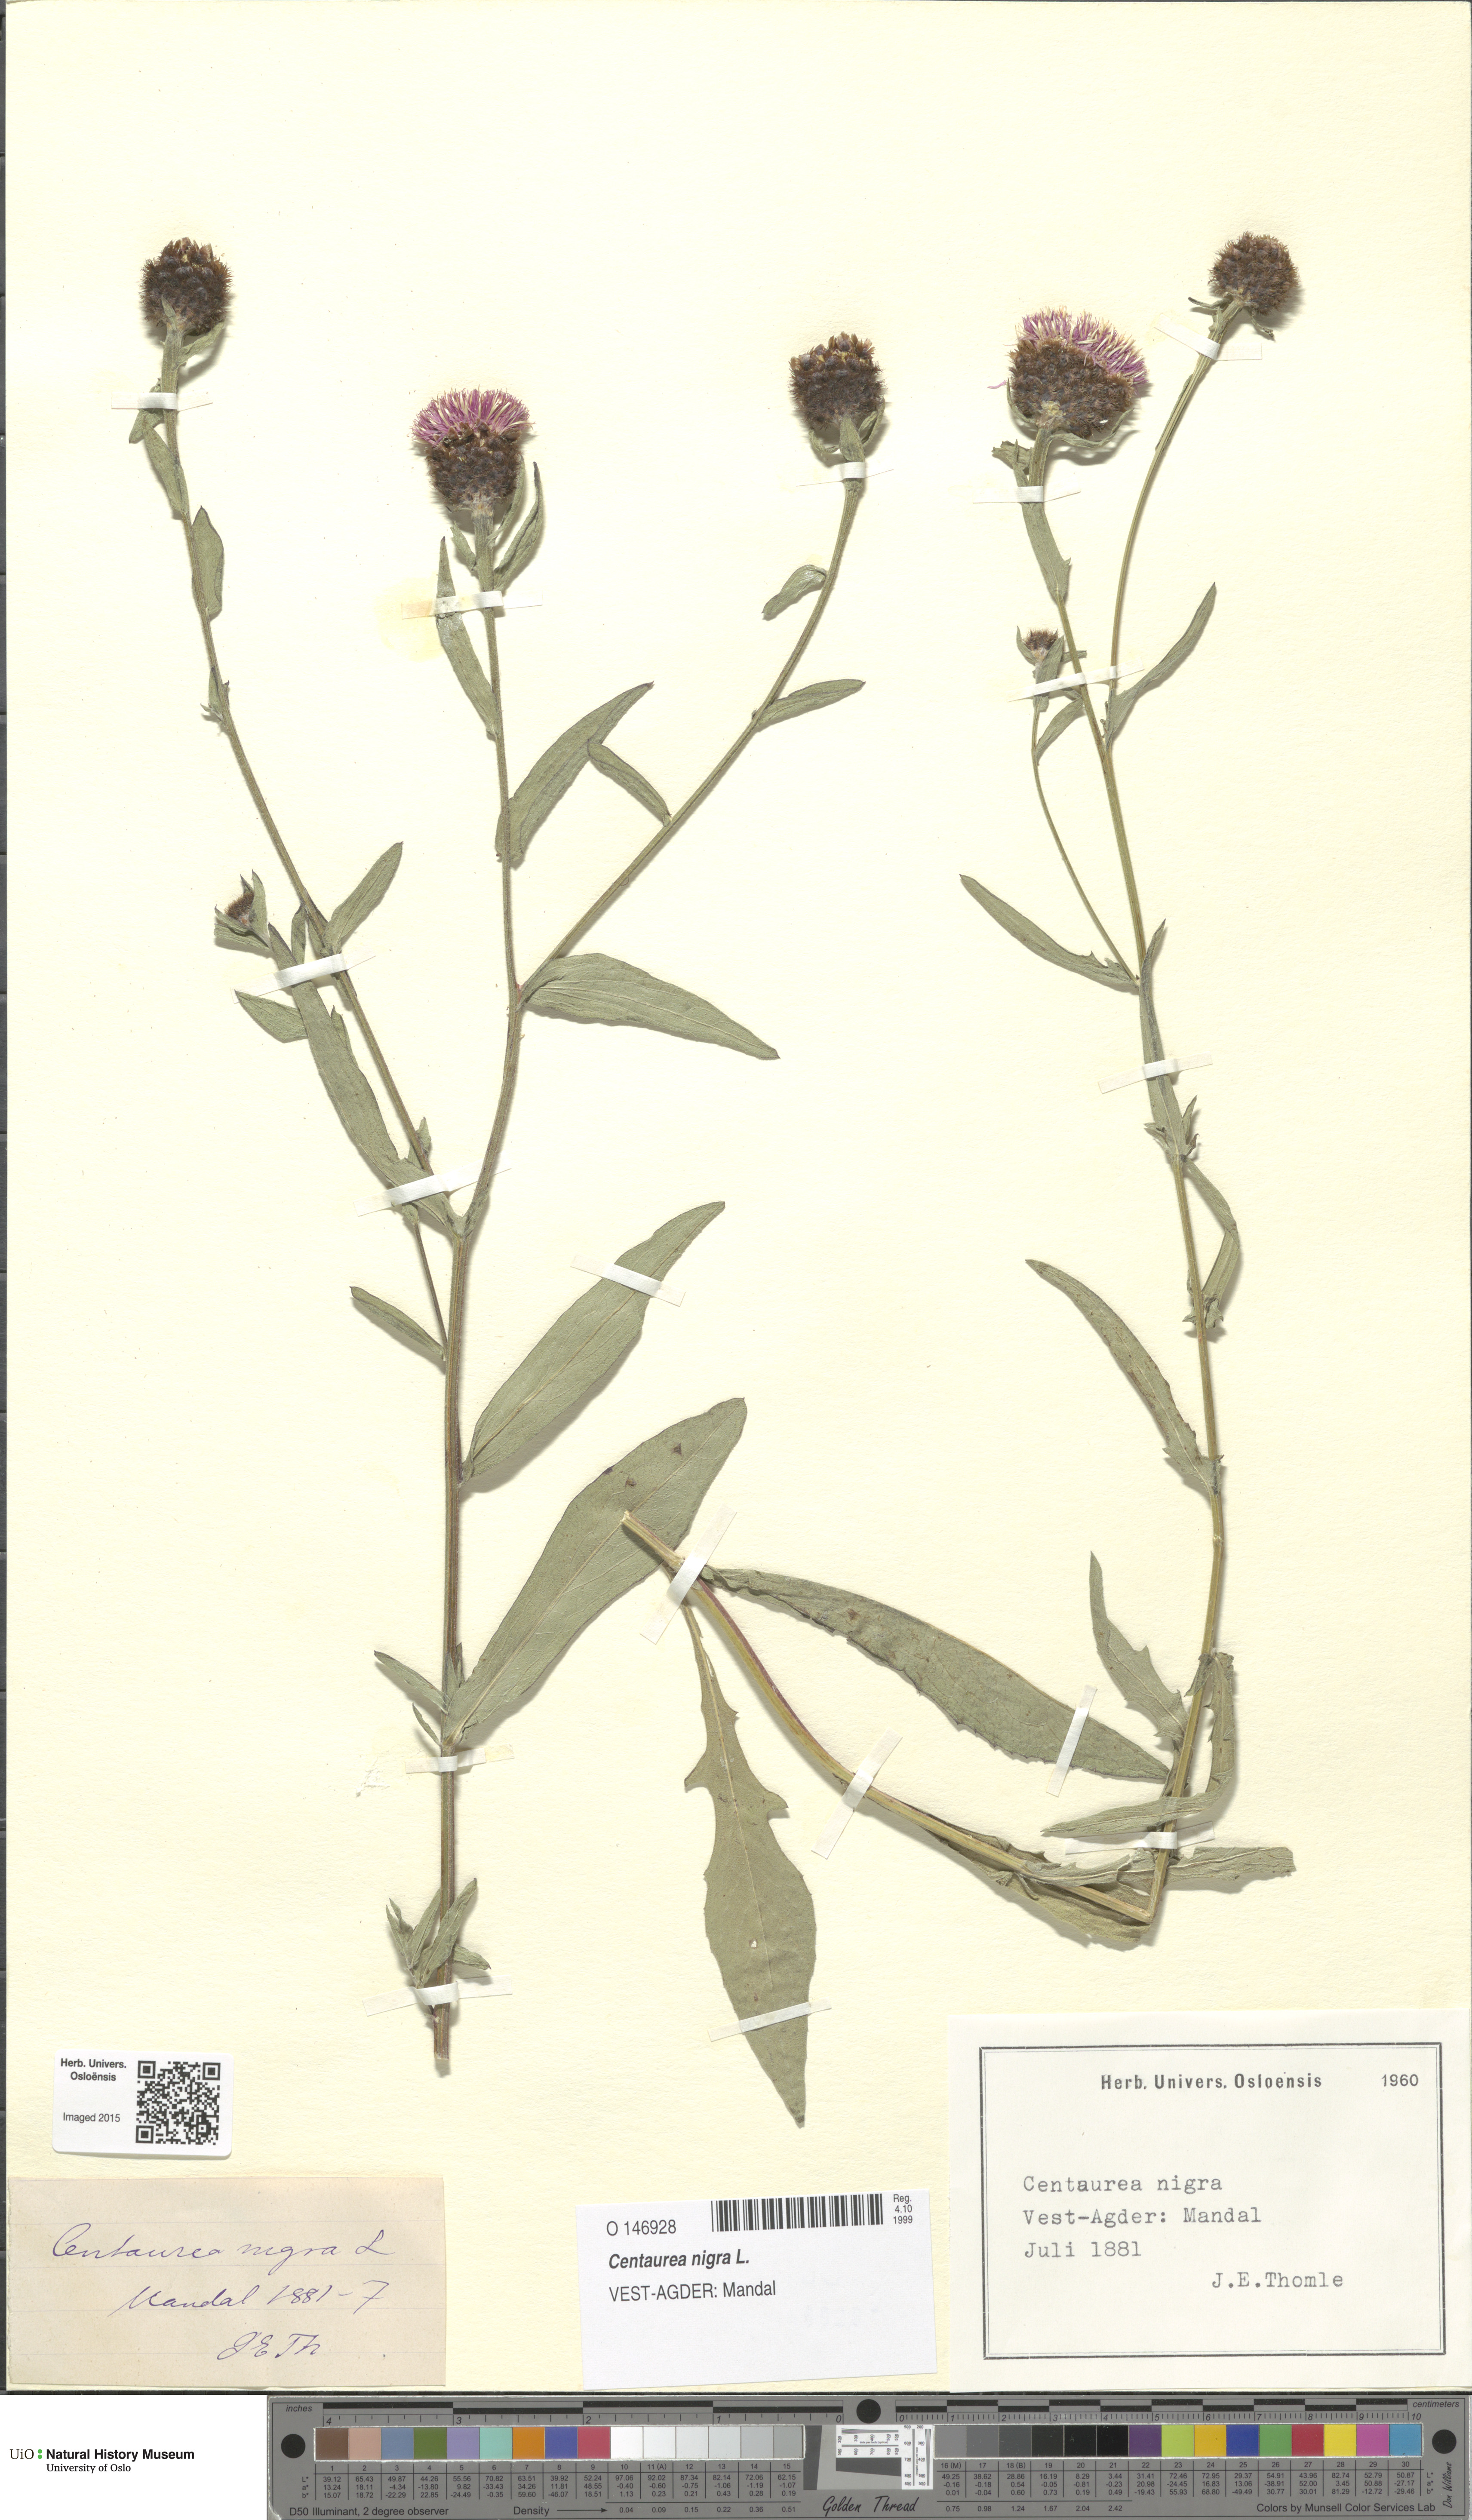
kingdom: Plantae
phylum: Tracheophyta
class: Magnoliopsida
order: Asterales
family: Asteraceae
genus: Centaurea
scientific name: Centaurea nigra
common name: Lesser knapweed
